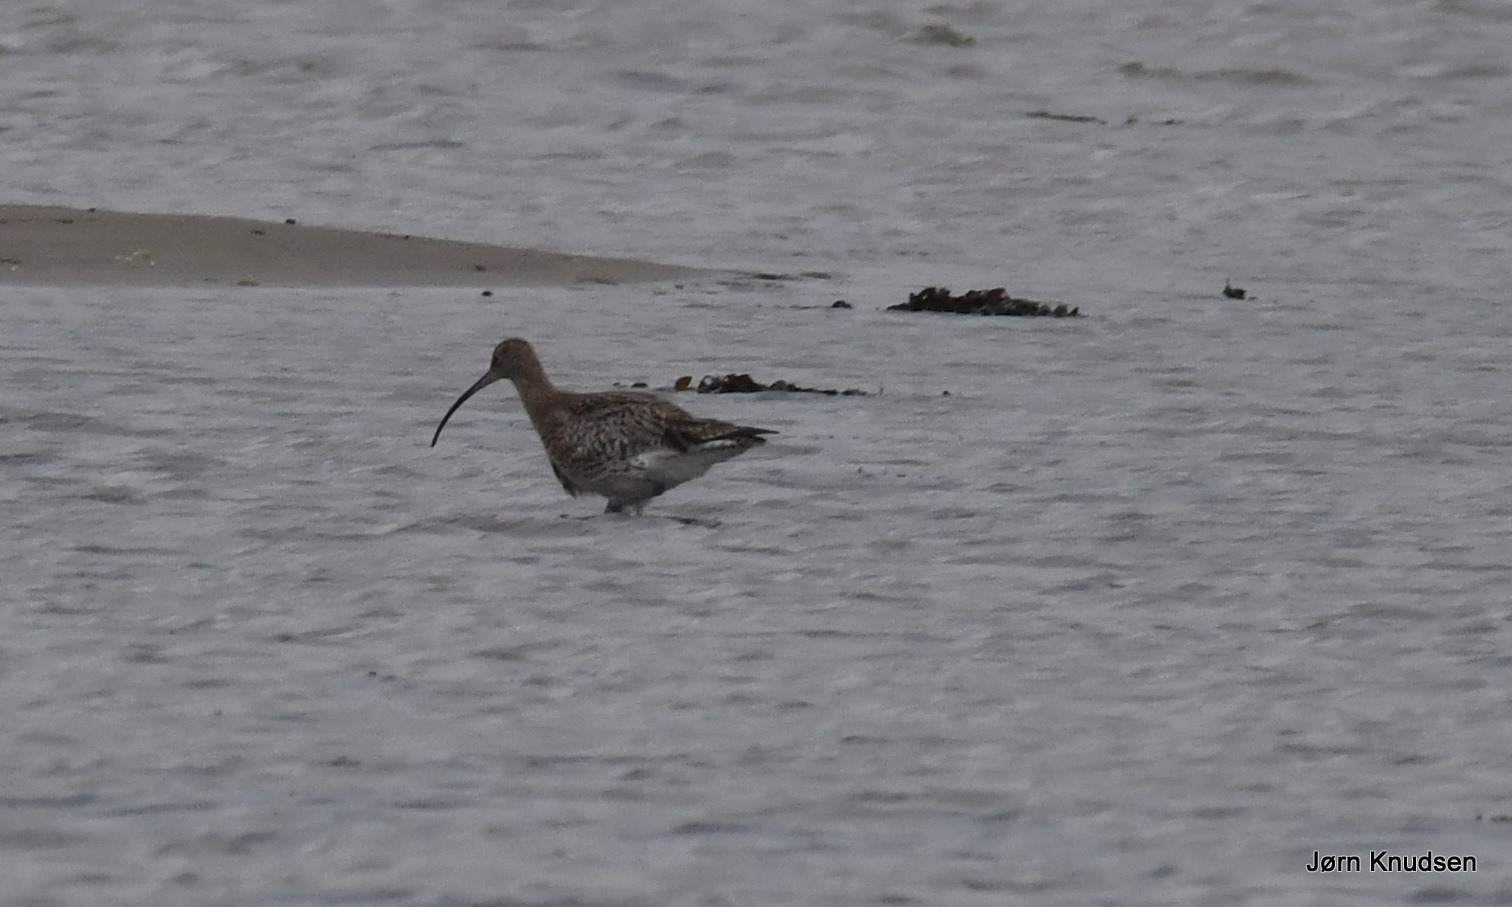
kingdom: Animalia
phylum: Chordata
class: Aves
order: Charadriiformes
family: Scolopacidae
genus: Numenius
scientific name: Numenius arquata
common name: Storspove
